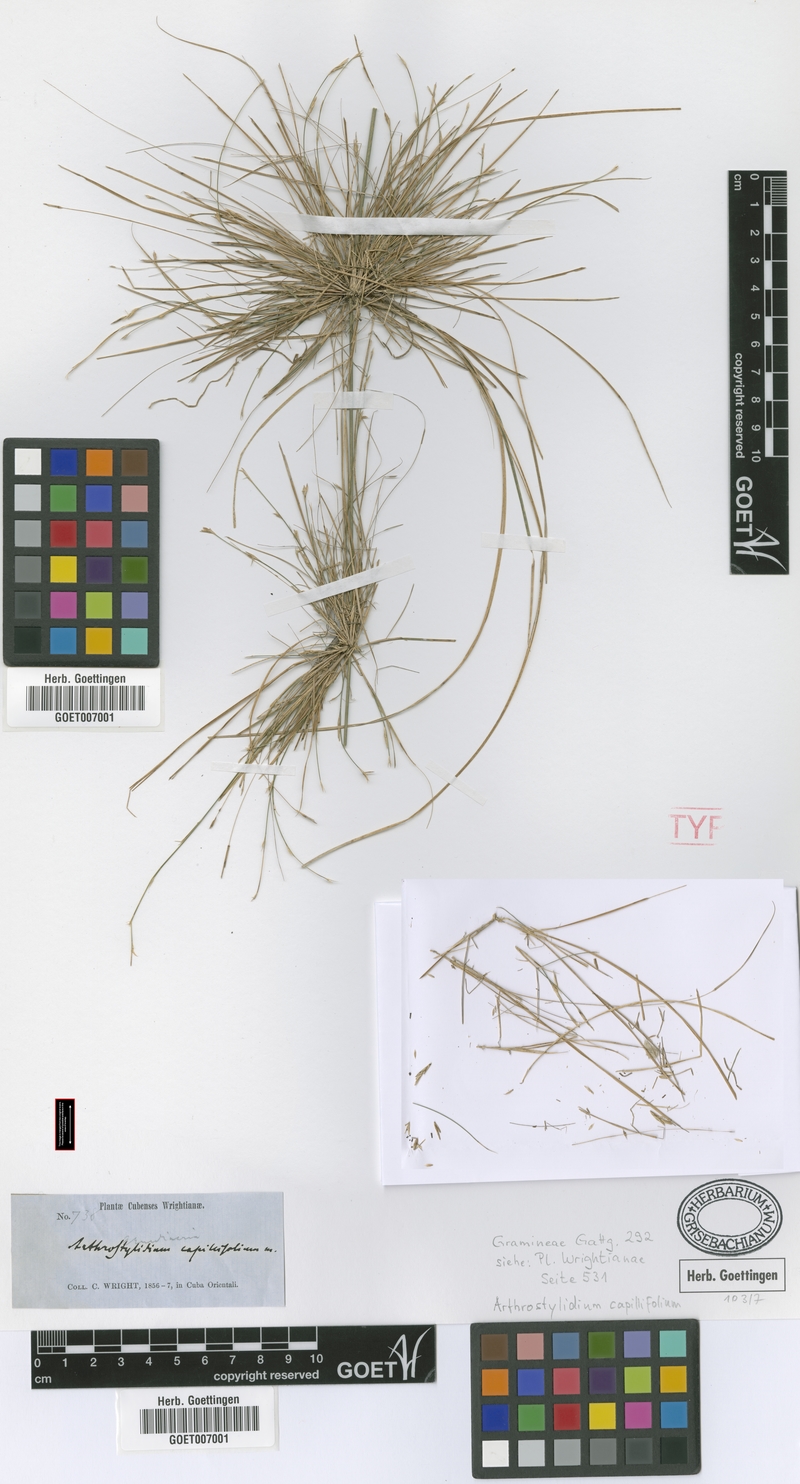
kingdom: Plantae
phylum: Tracheophyta
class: Liliopsida
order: Poales
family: Poaceae
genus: Tibisia
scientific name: Tibisia farcta
